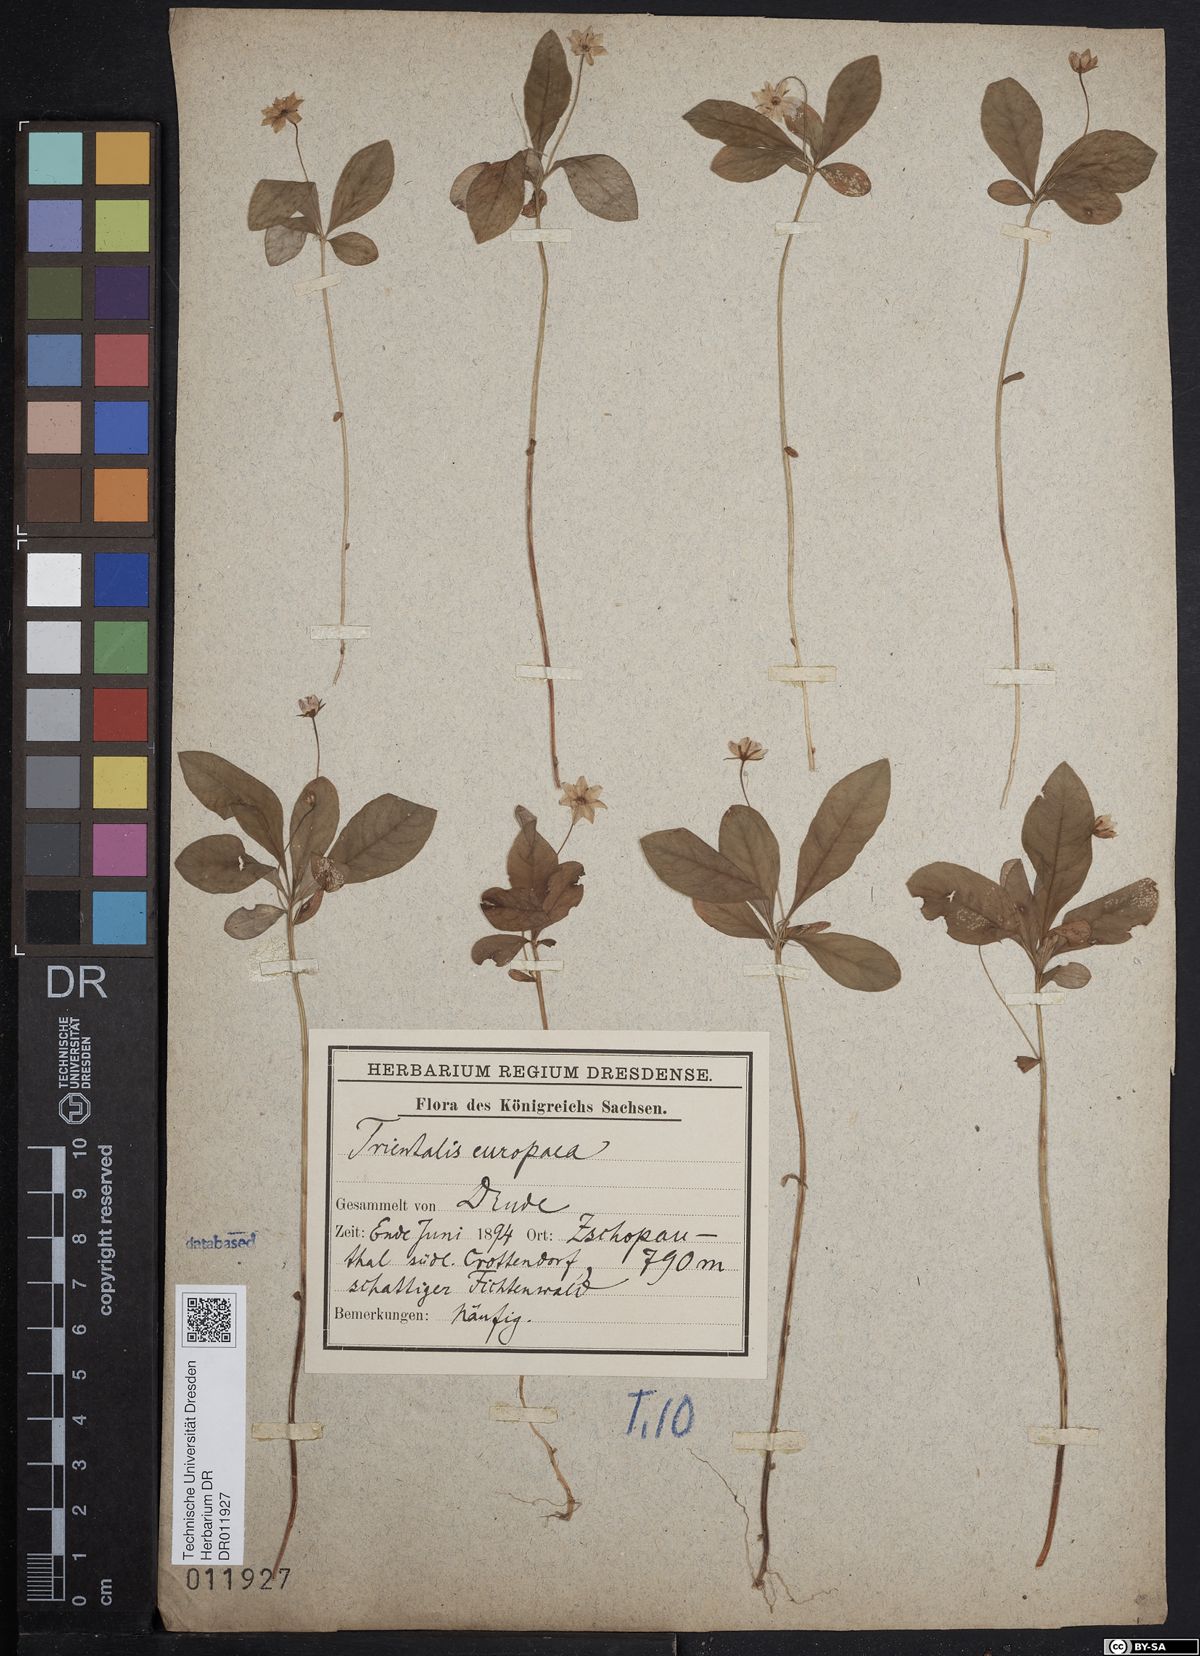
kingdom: Plantae
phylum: Tracheophyta
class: Magnoliopsida
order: Ericales
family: Primulaceae
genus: Lysimachia
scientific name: Lysimachia europaea
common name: Arctic starflower
